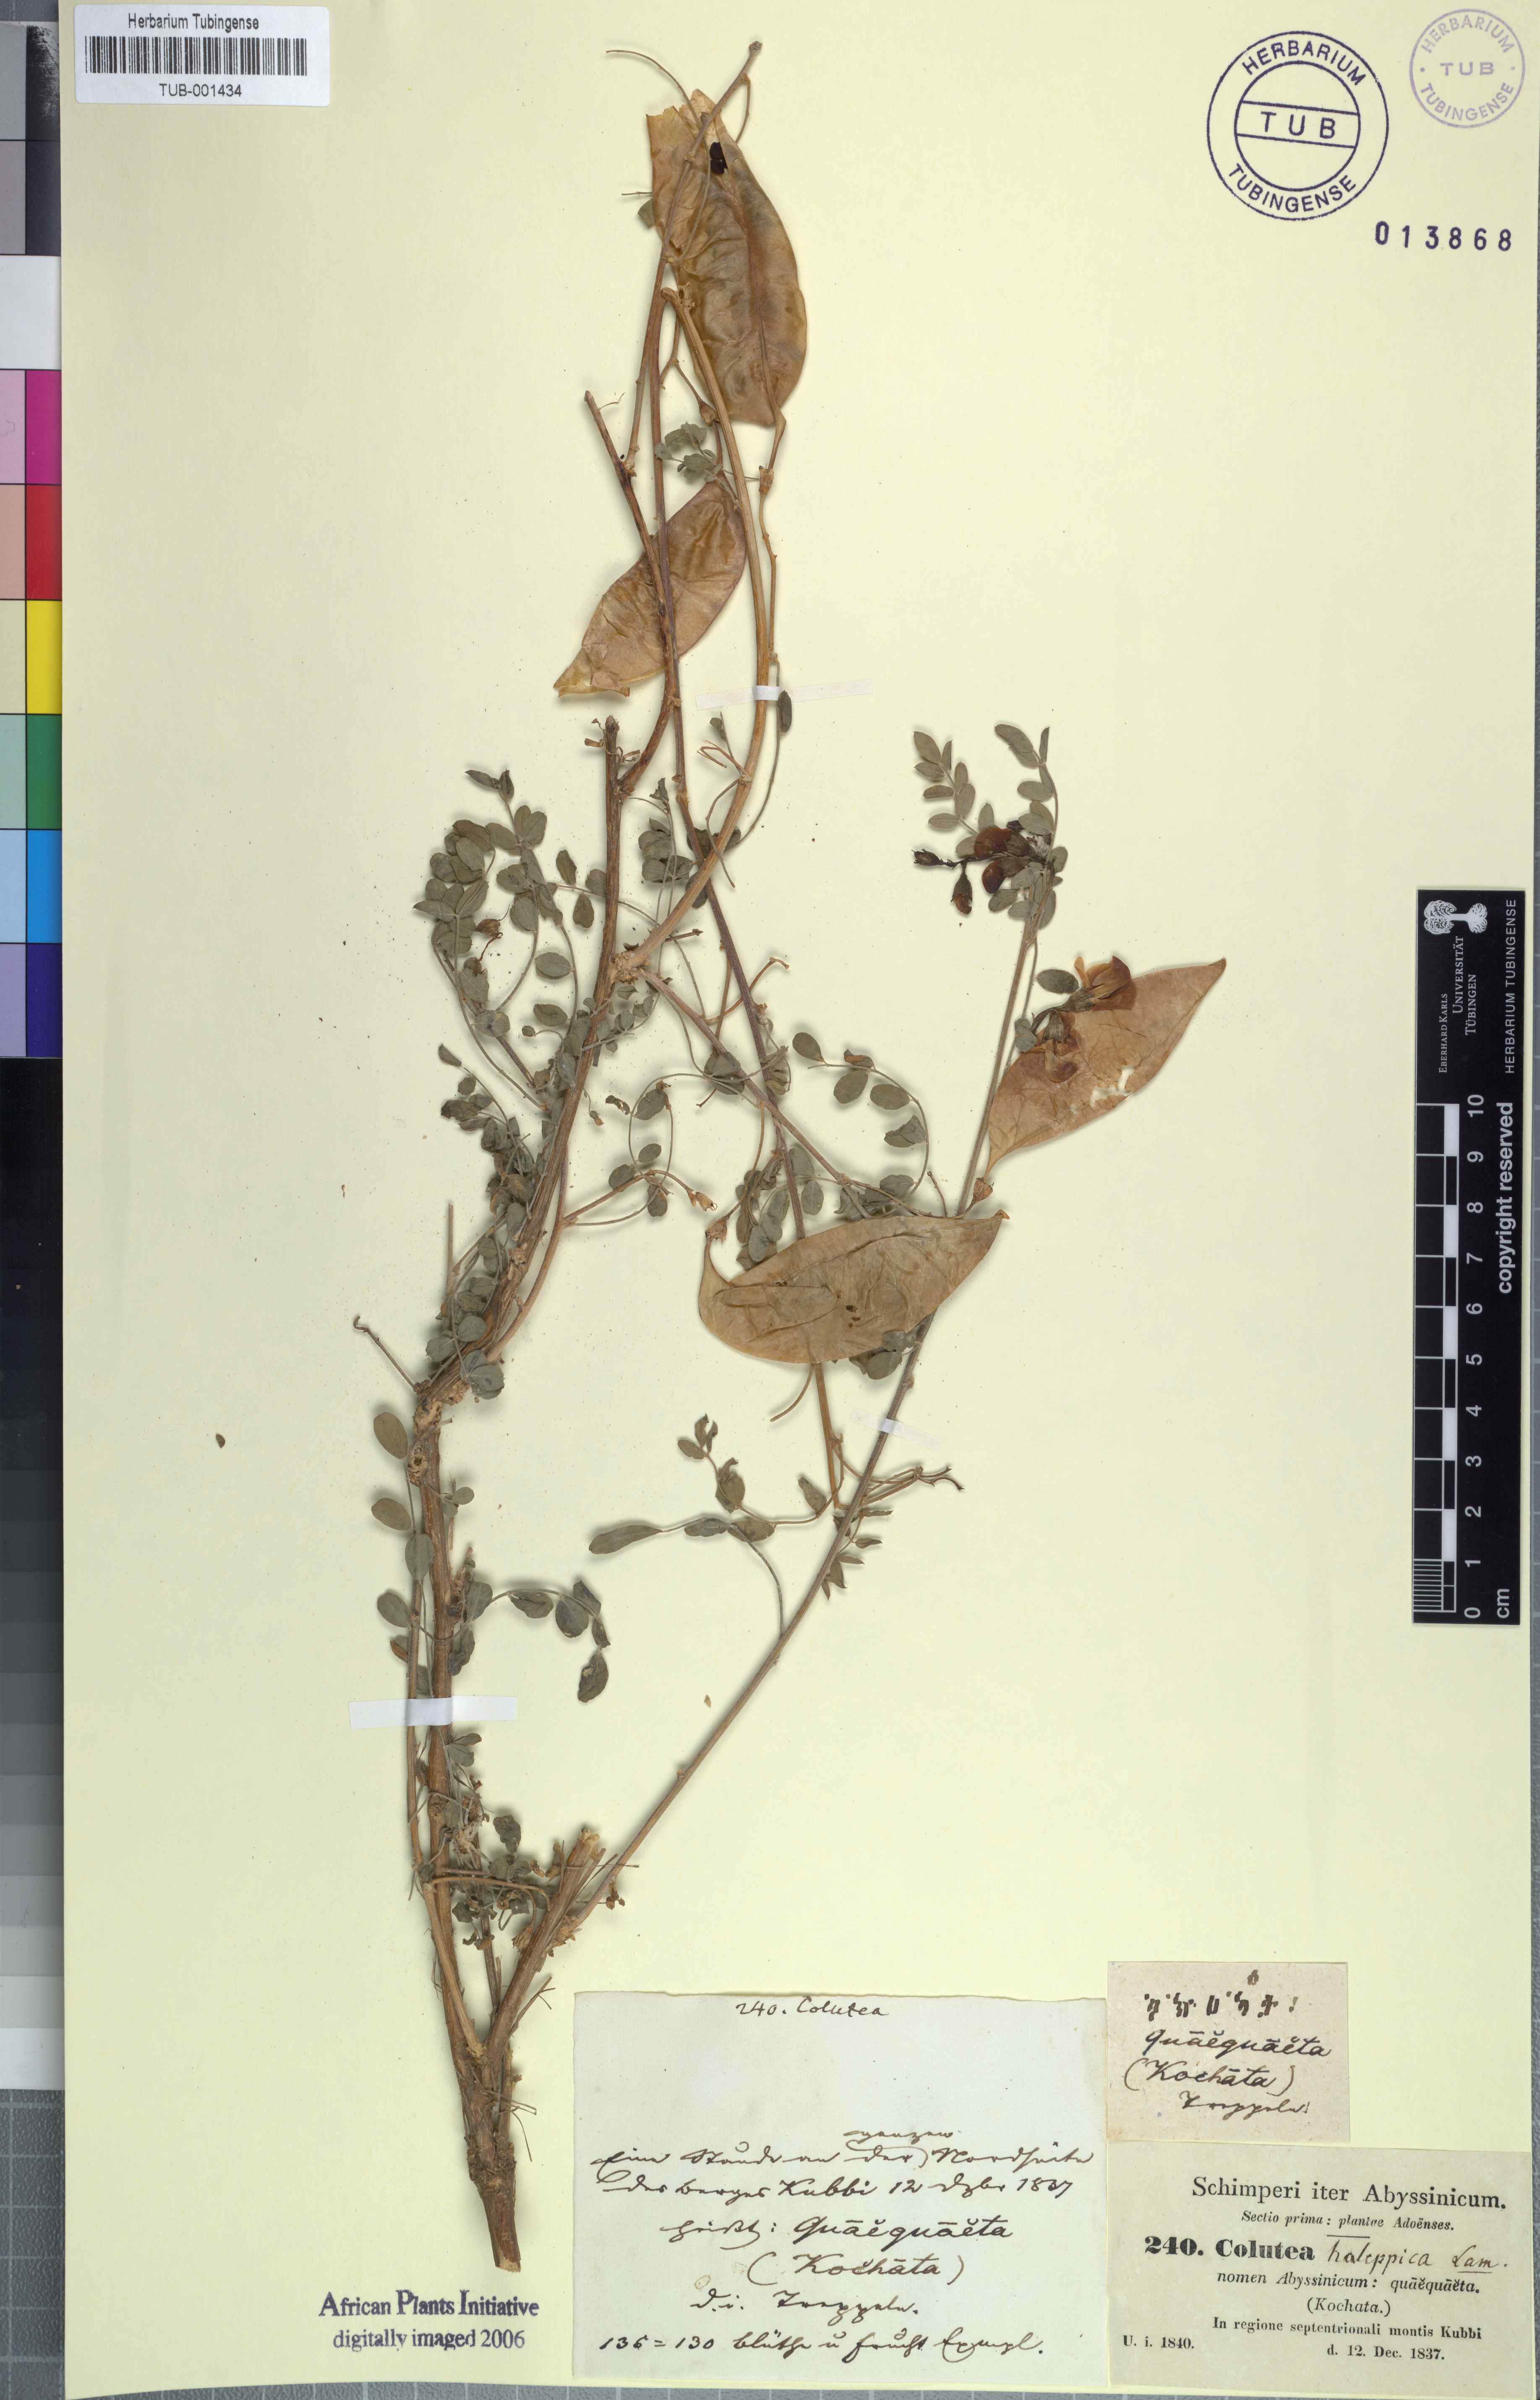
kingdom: Plantae
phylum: Tracheophyta
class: Magnoliopsida
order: Fabales
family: Fabaceae
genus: Colutea
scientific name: Colutea istria
